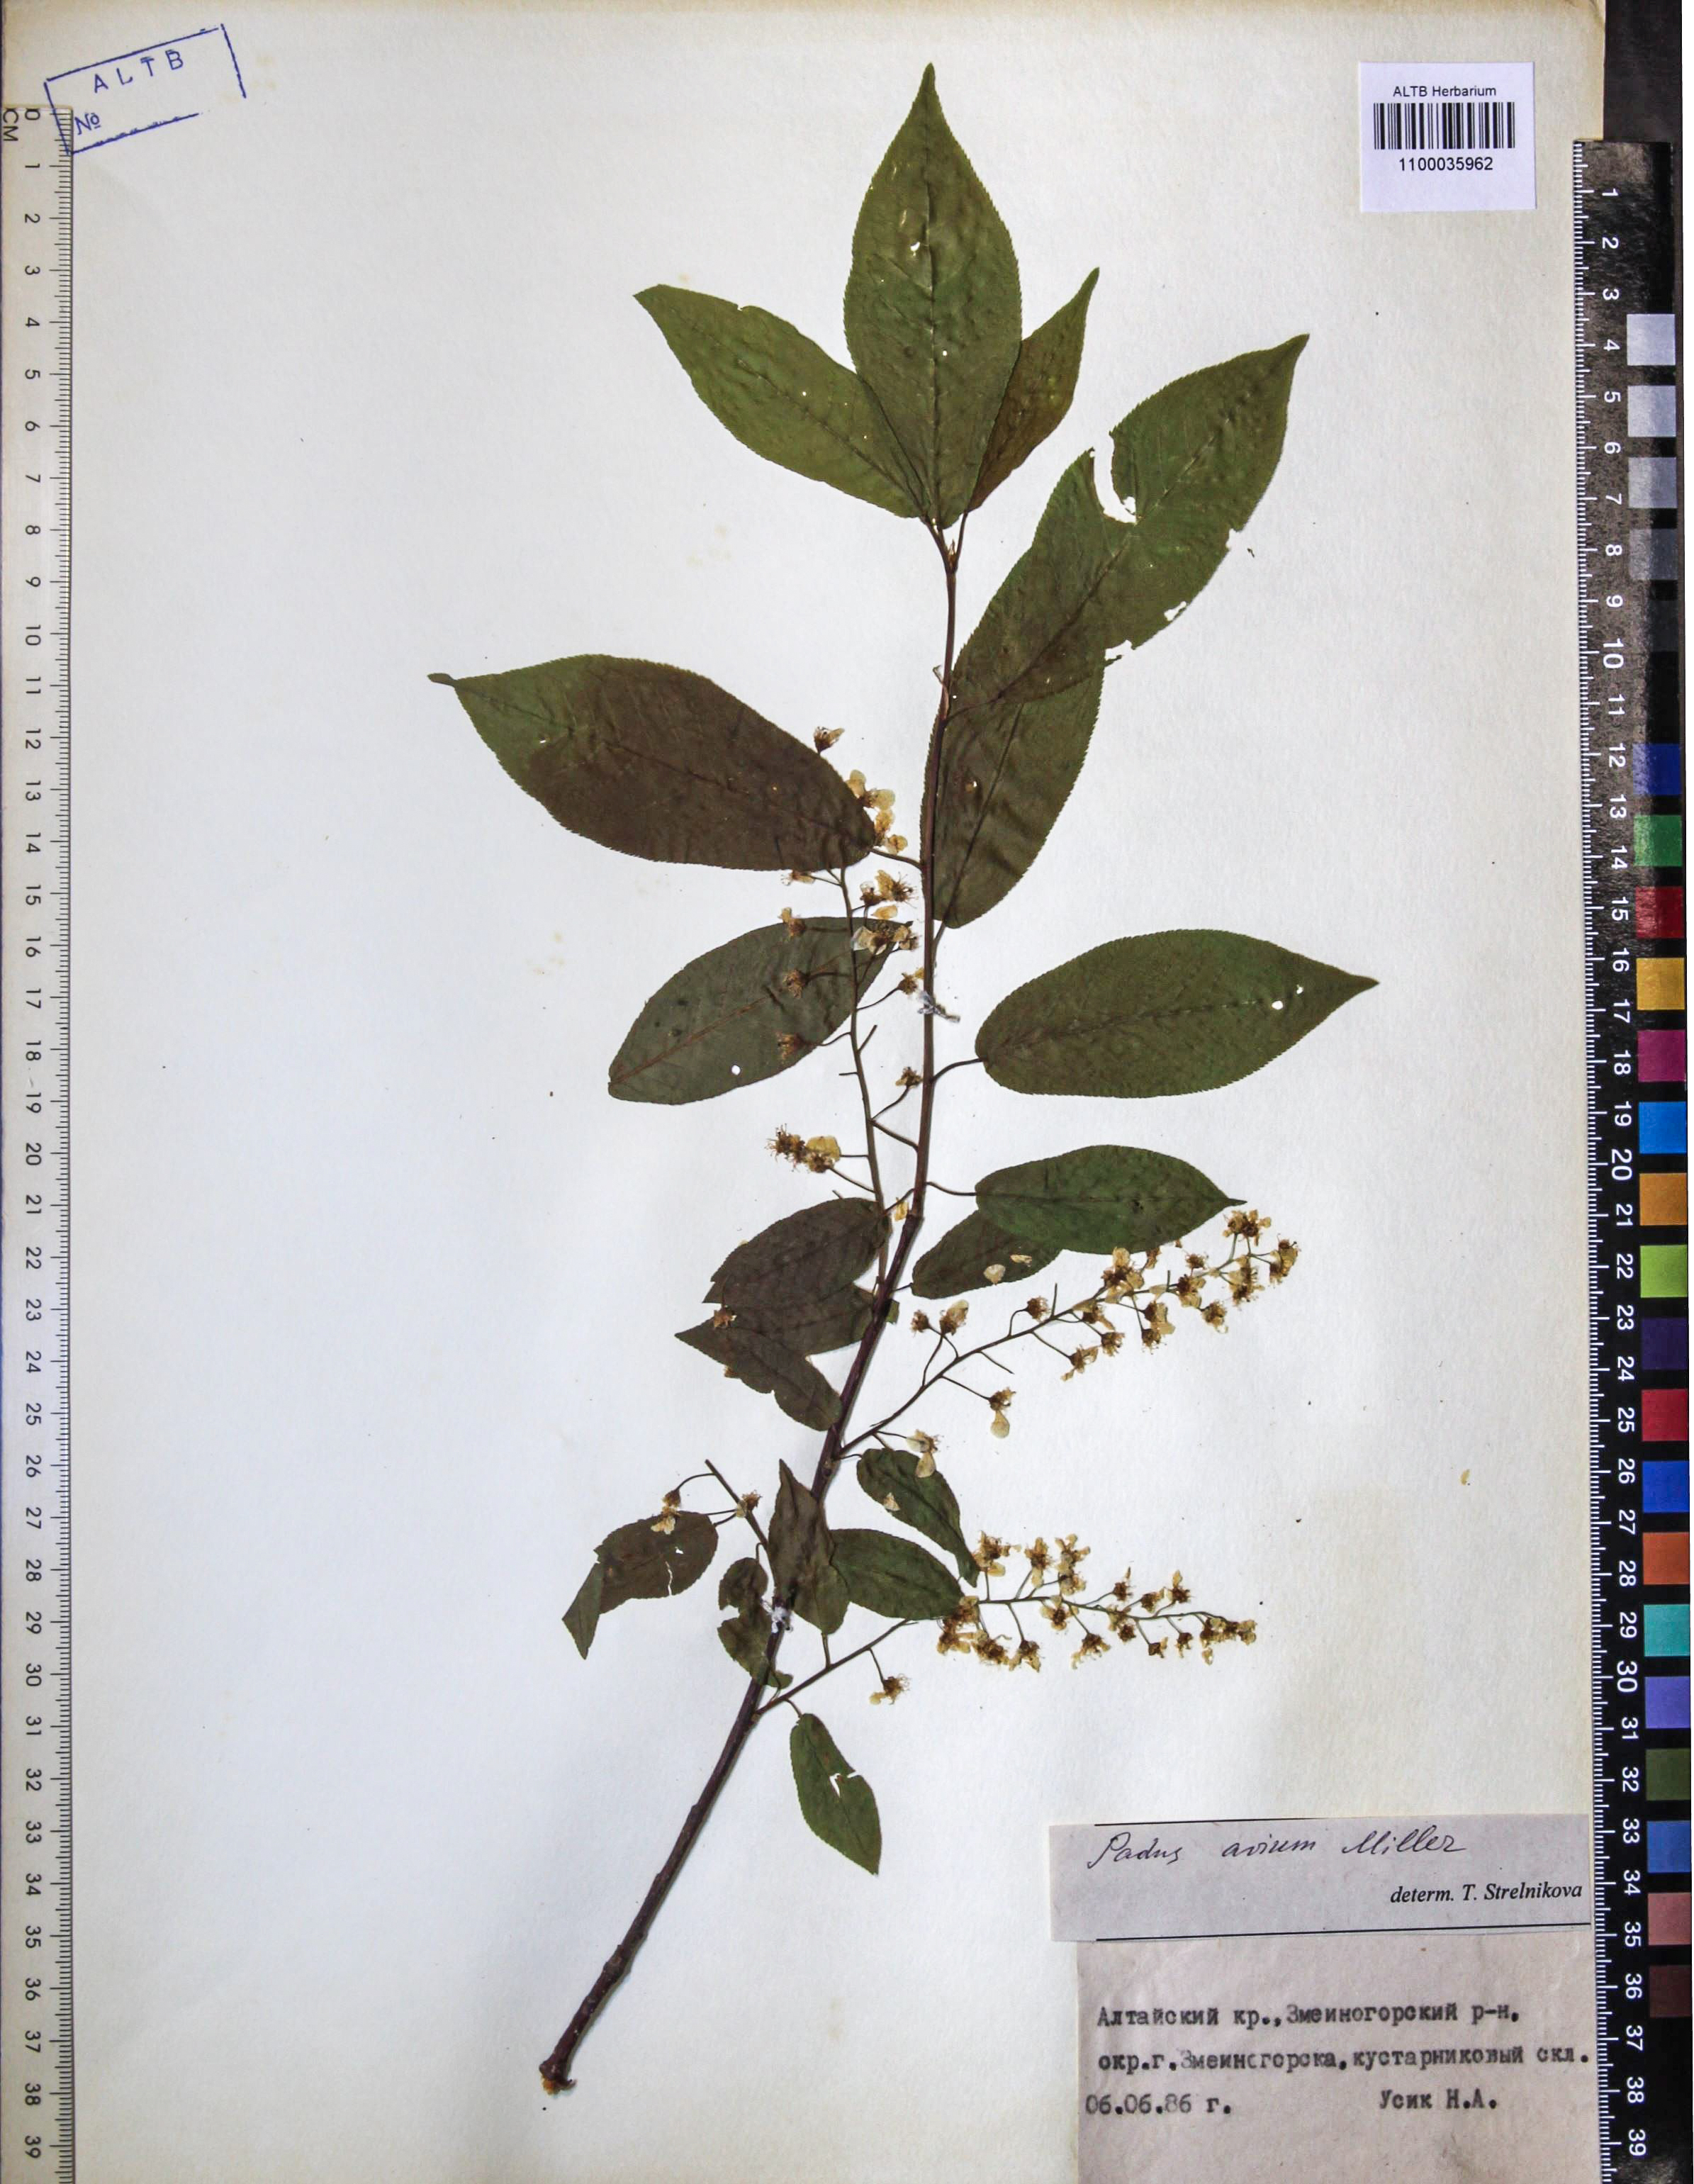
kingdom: Plantae
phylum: Tracheophyta
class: Magnoliopsida
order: Rosales
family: Rosaceae
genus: Prunus
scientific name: Prunus padus
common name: Bird cherry
